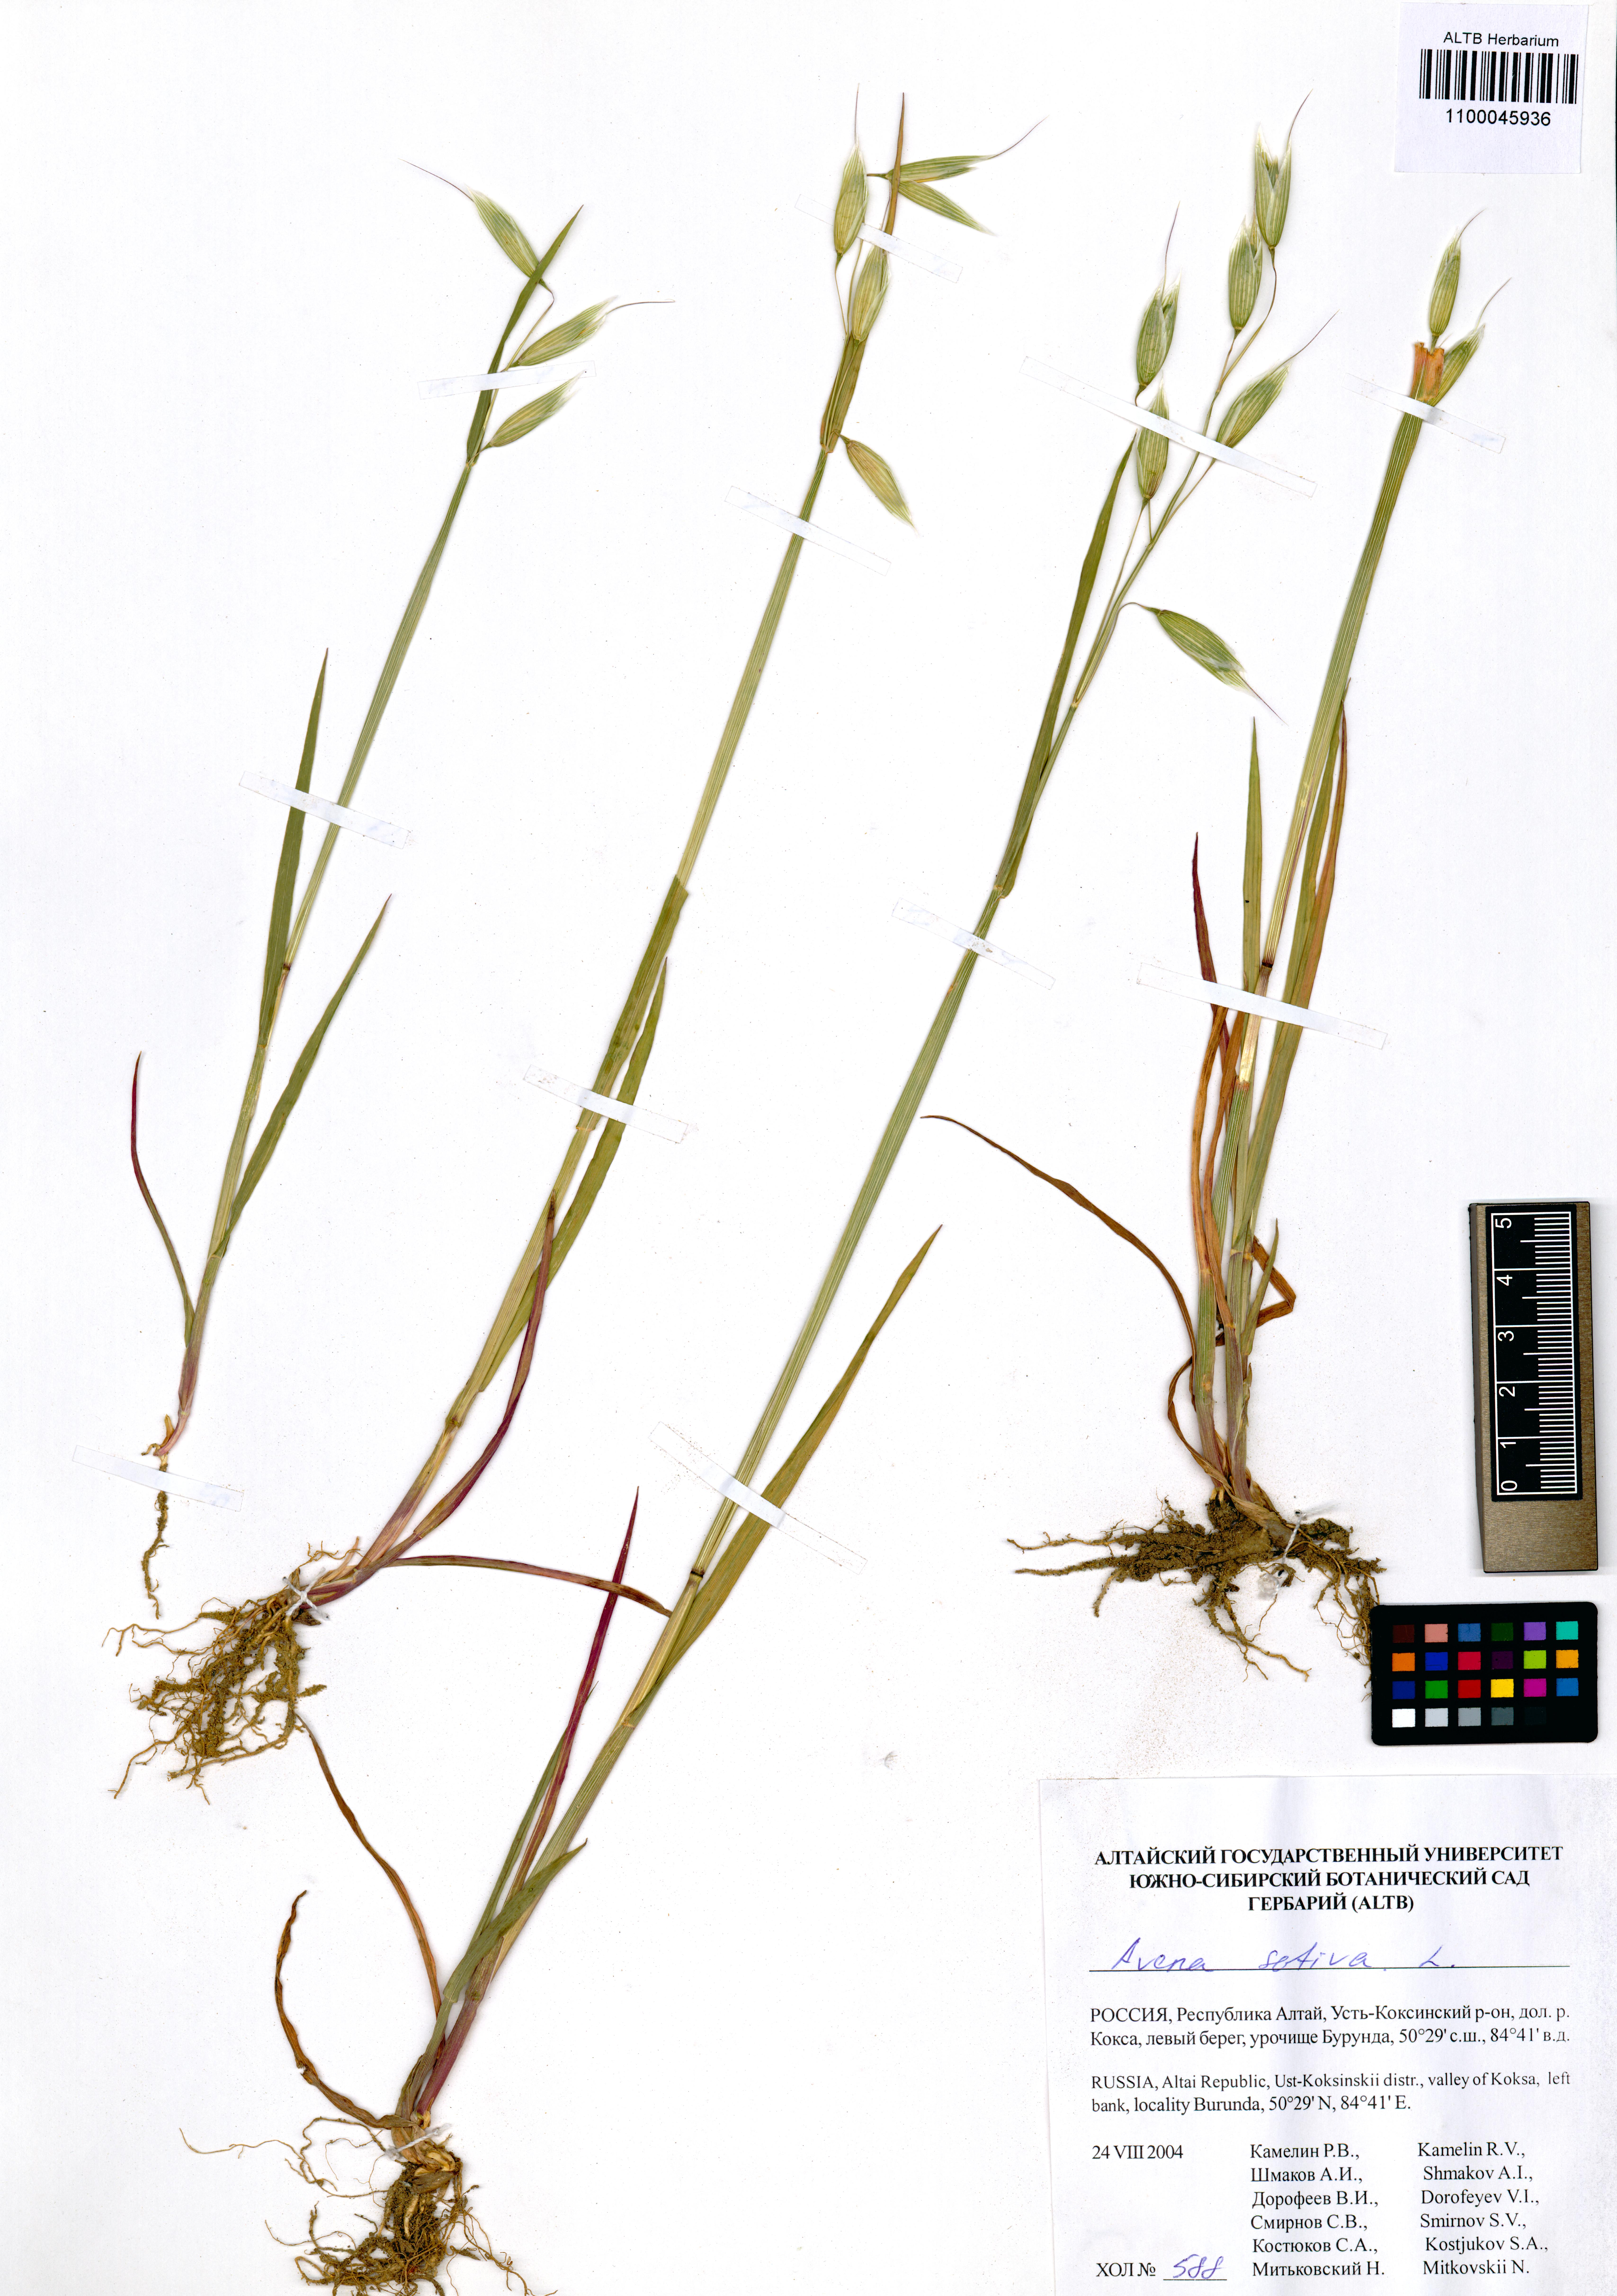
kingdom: Plantae
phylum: Tracheophyta
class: Liliopsida
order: Poales
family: Poaceae
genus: Avena
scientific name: Avena sativa
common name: Oat
